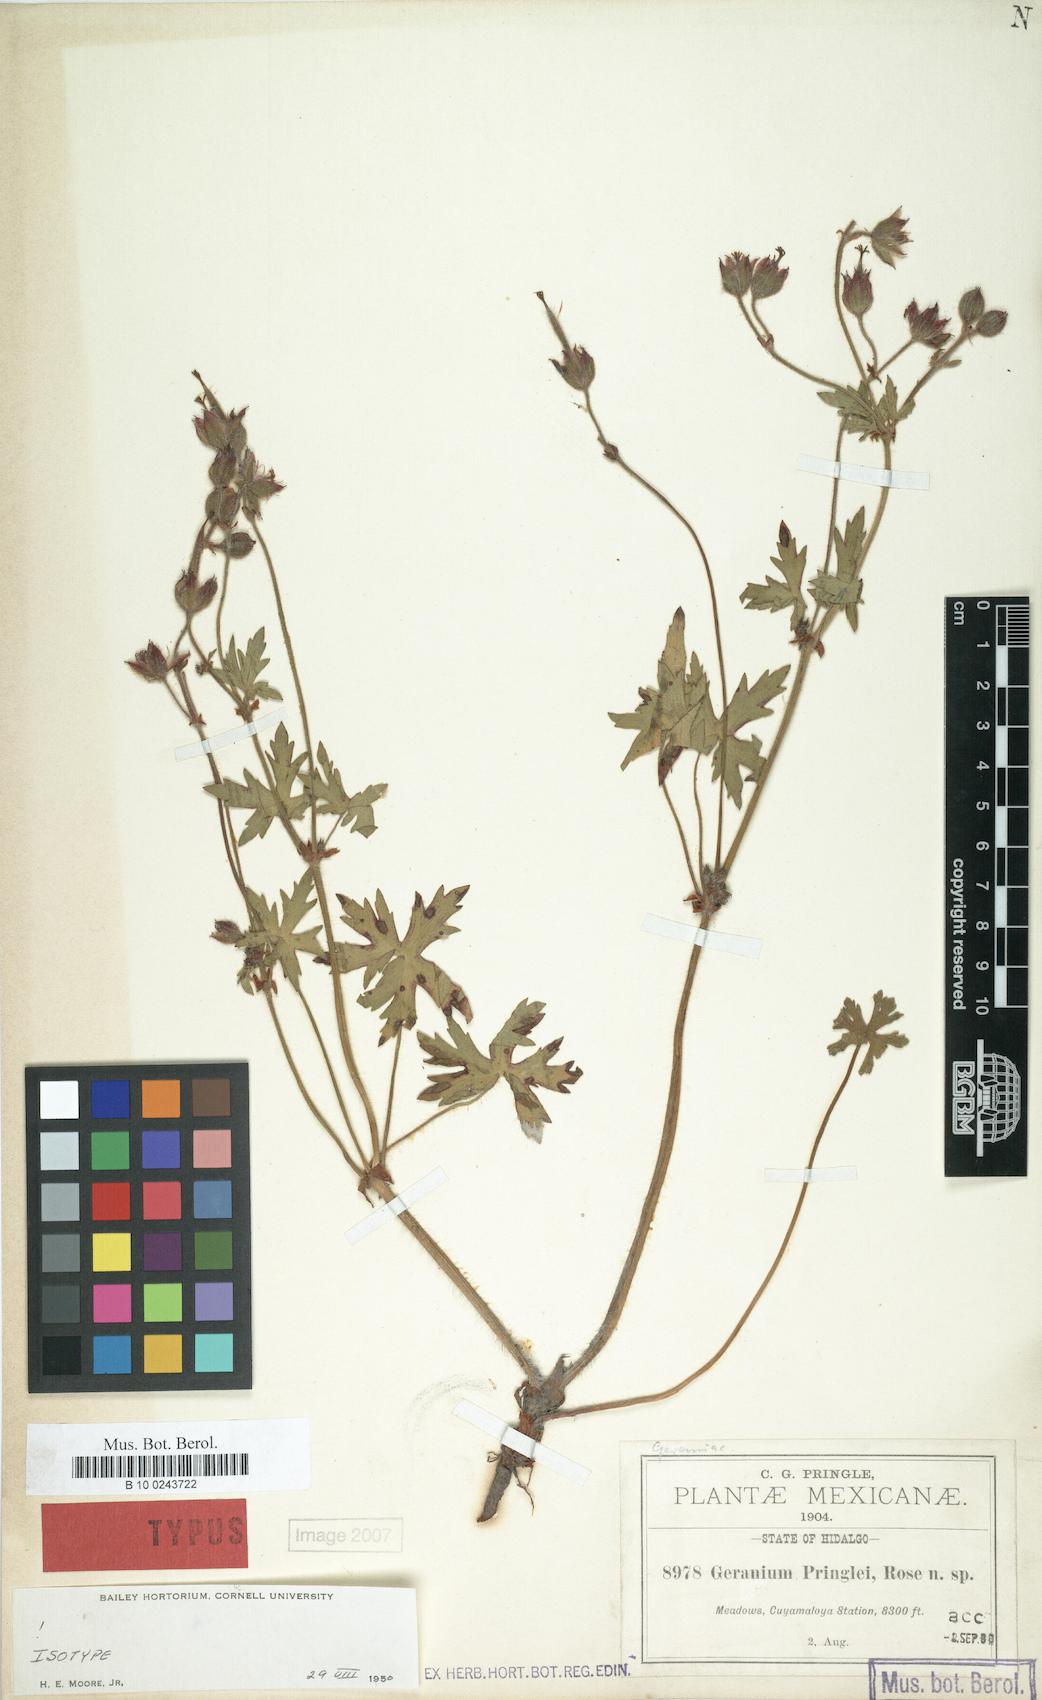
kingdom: Plantae
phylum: Tracheophyta
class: Magnoliopsida
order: Geraniales
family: Geraniaceae
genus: Geranium
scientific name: Geranium pringlei
